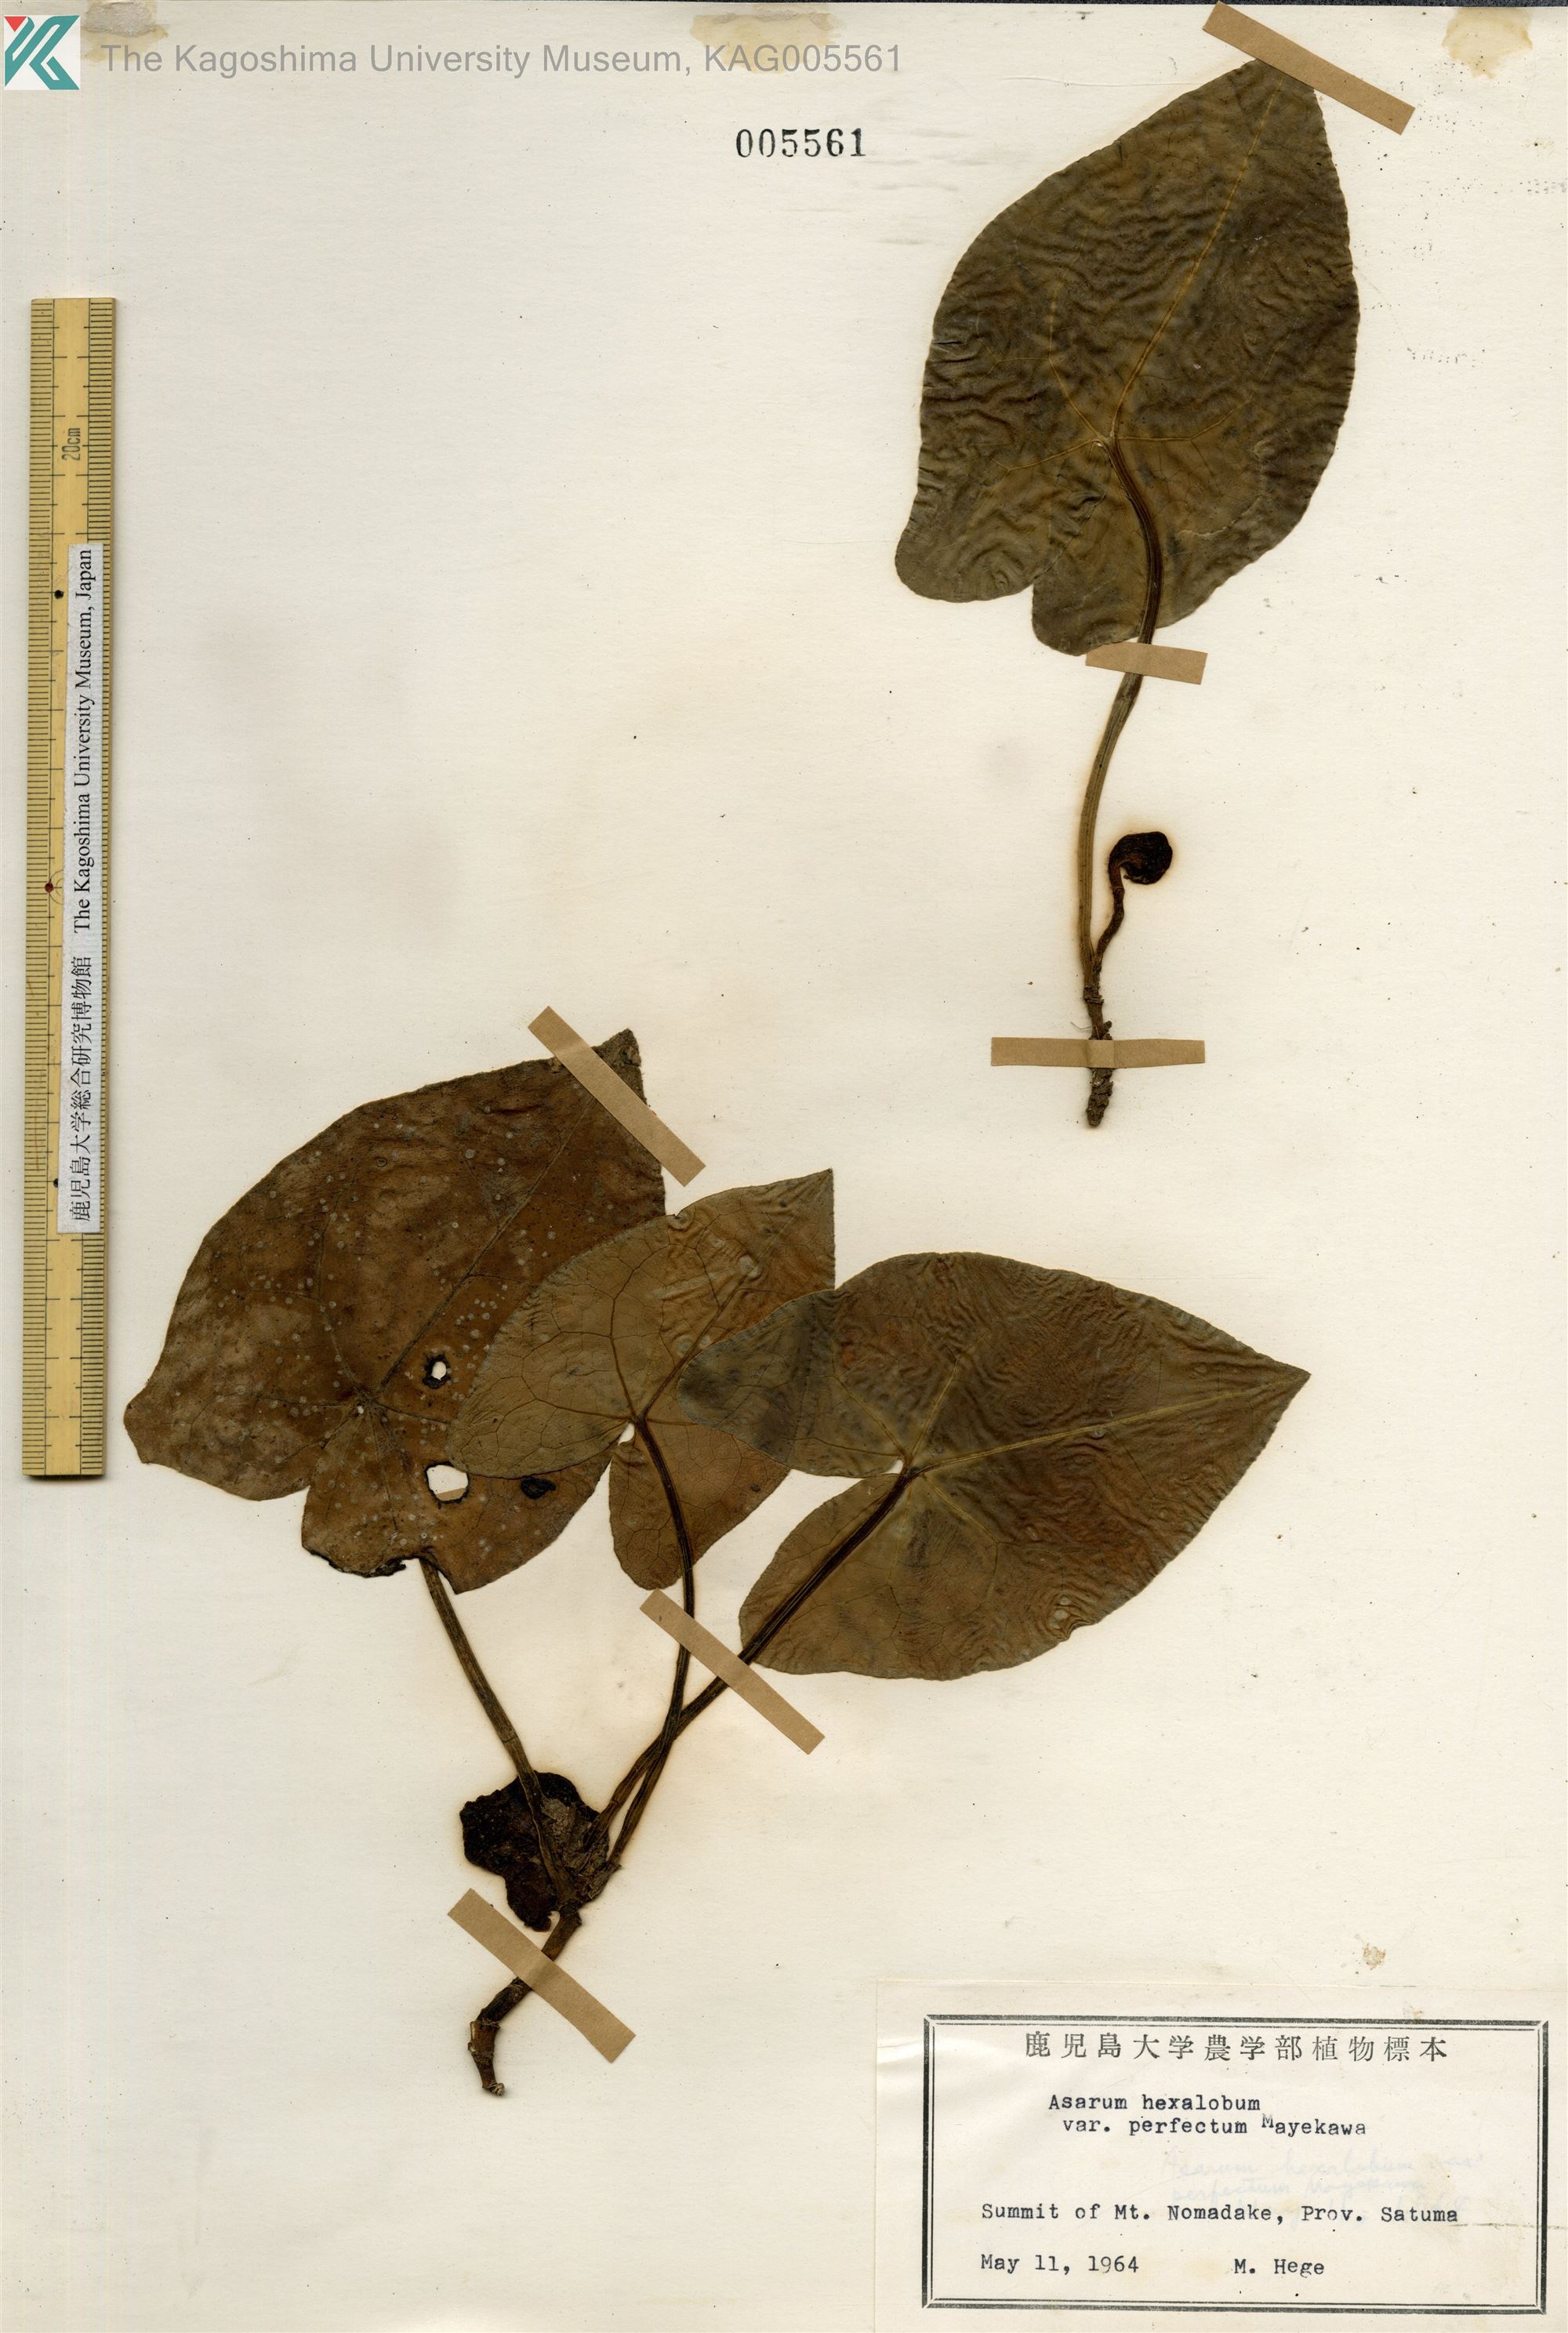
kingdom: Plantae
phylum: Tracheophyta
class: Magnoliopsida
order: Piperales
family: Aristolochiaceae
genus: Asarum
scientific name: Asarum hexalobum
